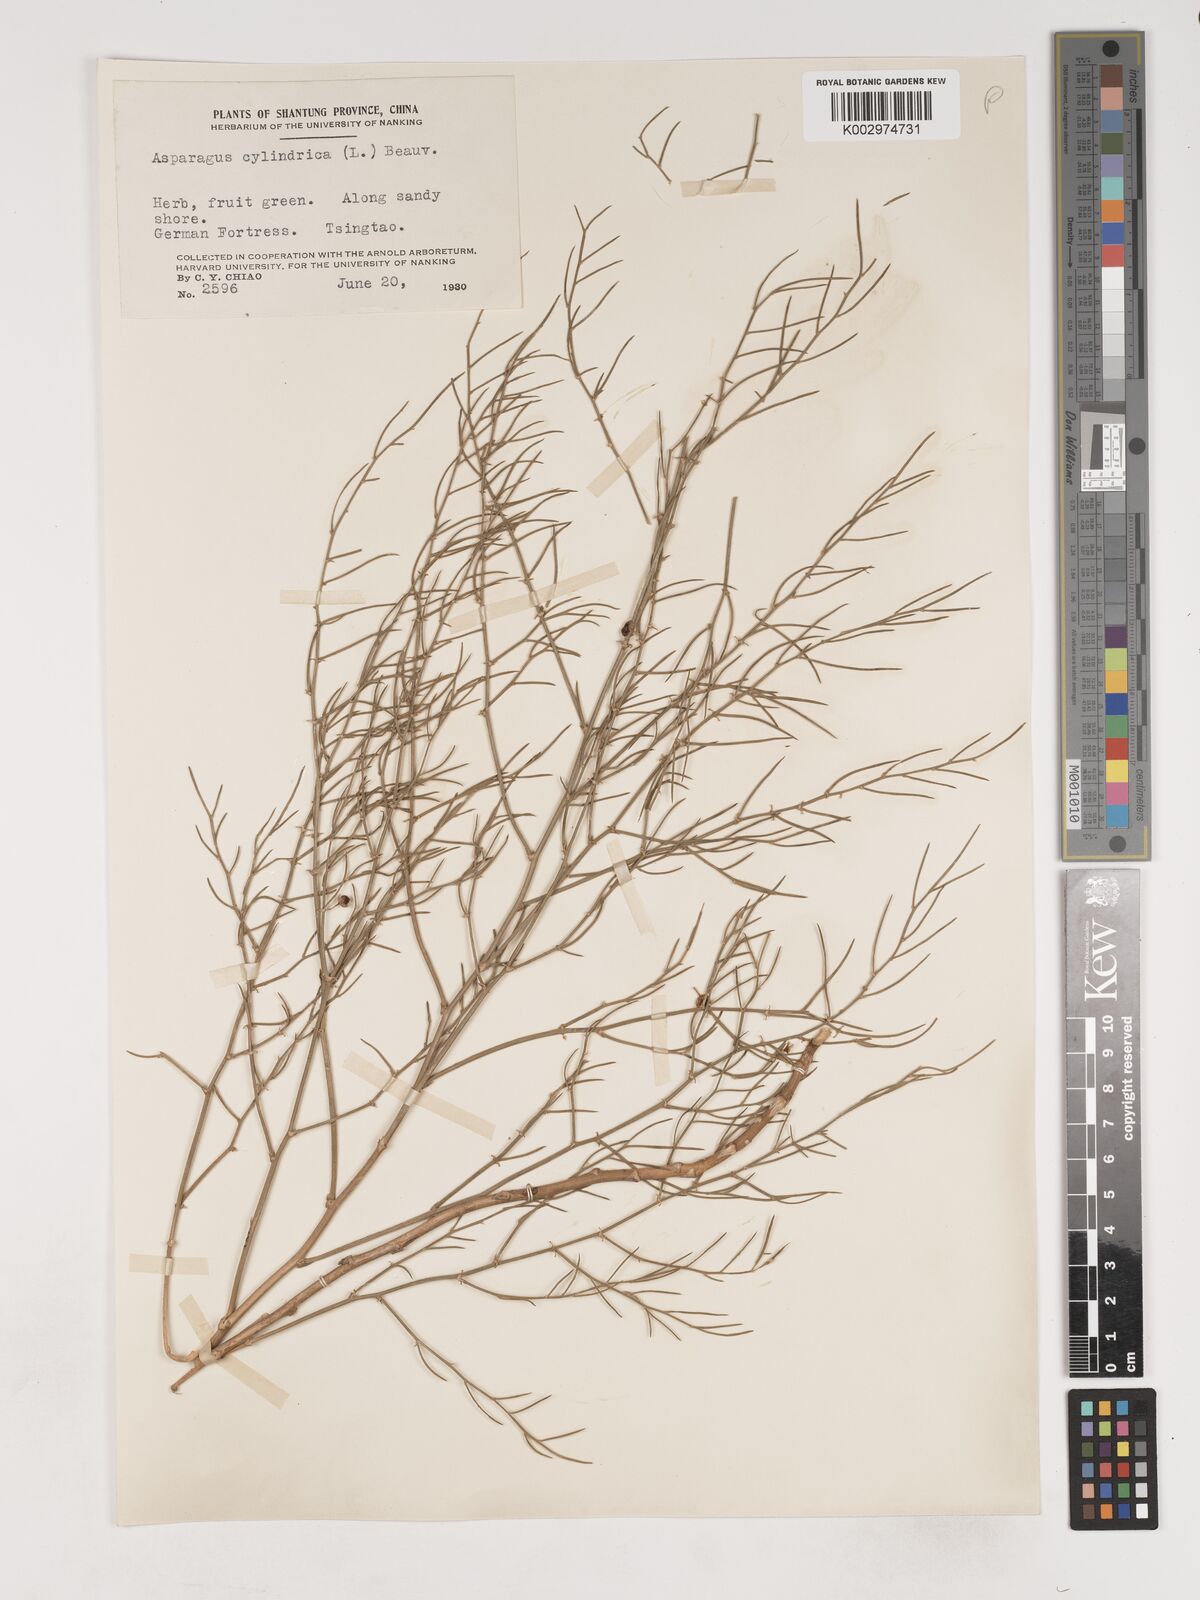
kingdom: Plantae
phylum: Tracheophyta
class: Liliopsida
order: Asparagales
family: Asparagaceae
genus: Asparagus
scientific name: Asparagus dauricus
